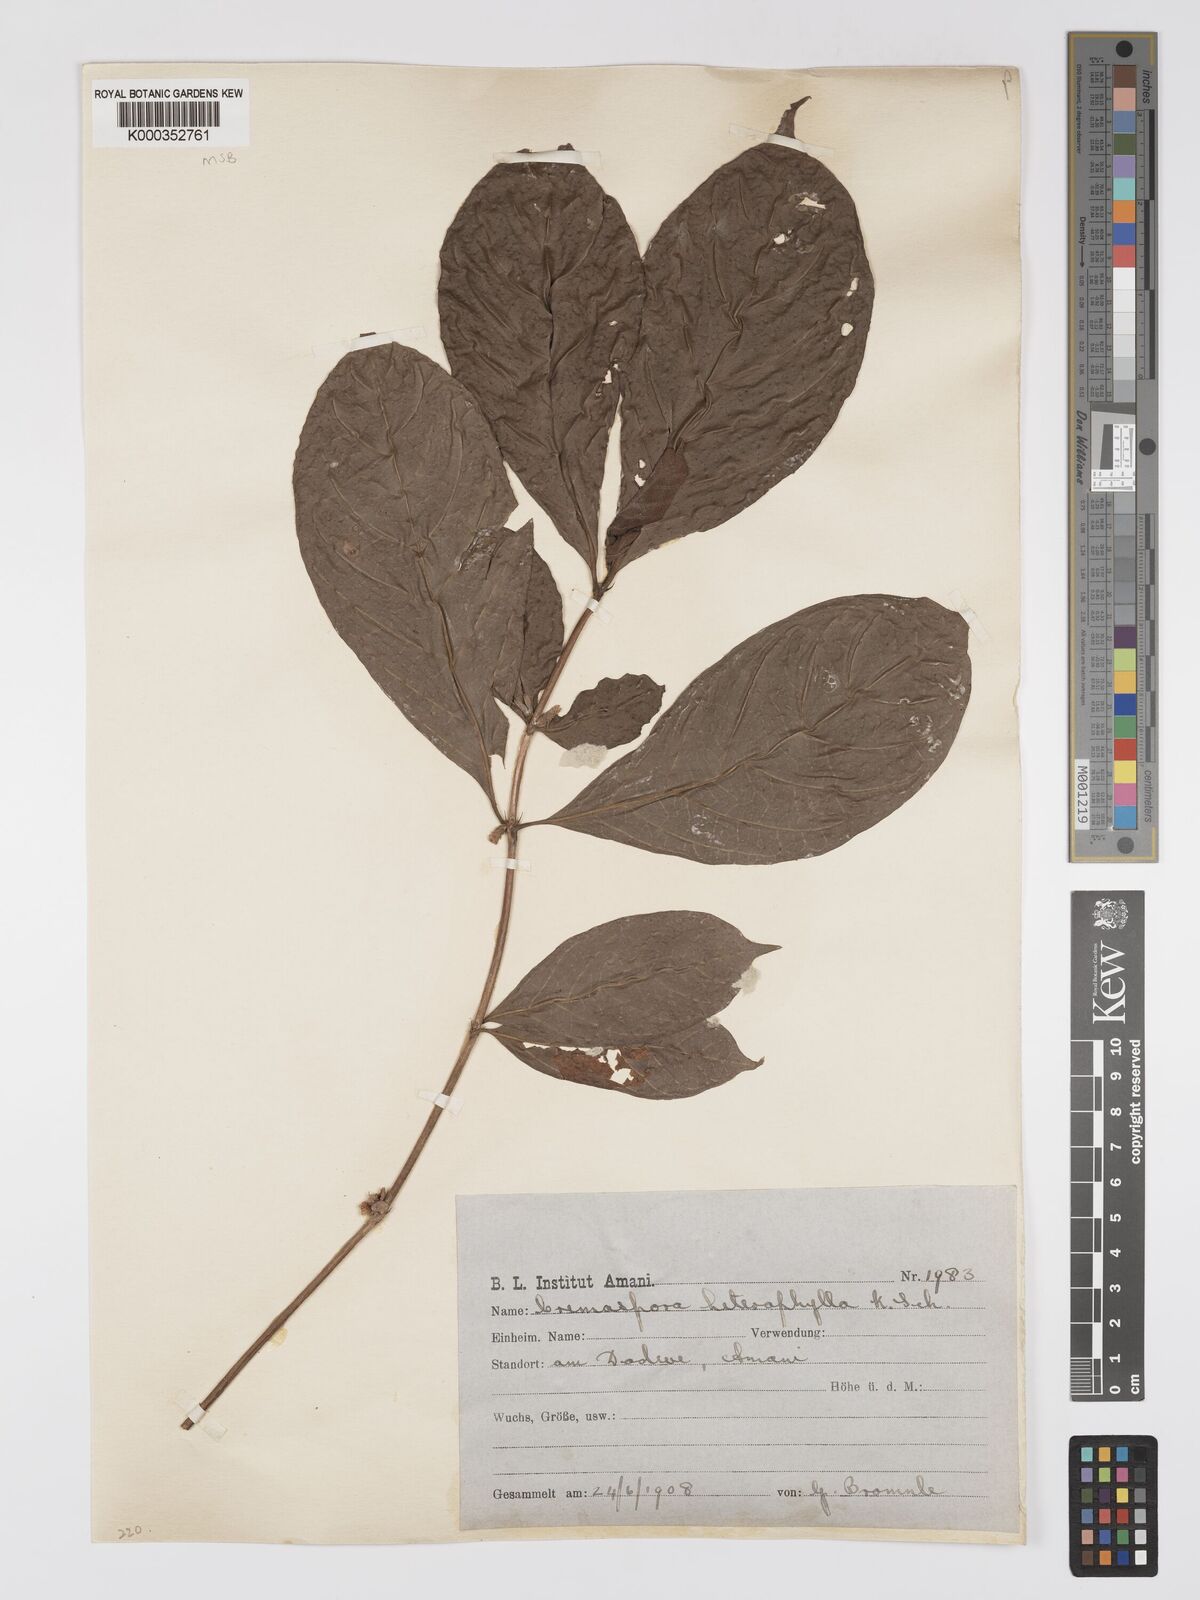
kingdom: Plantae
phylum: Tracheophyta
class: Magnoliopsida
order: Gentianales
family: Rubiaceae
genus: Sericanthe
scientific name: Sericanthe odoratissima
